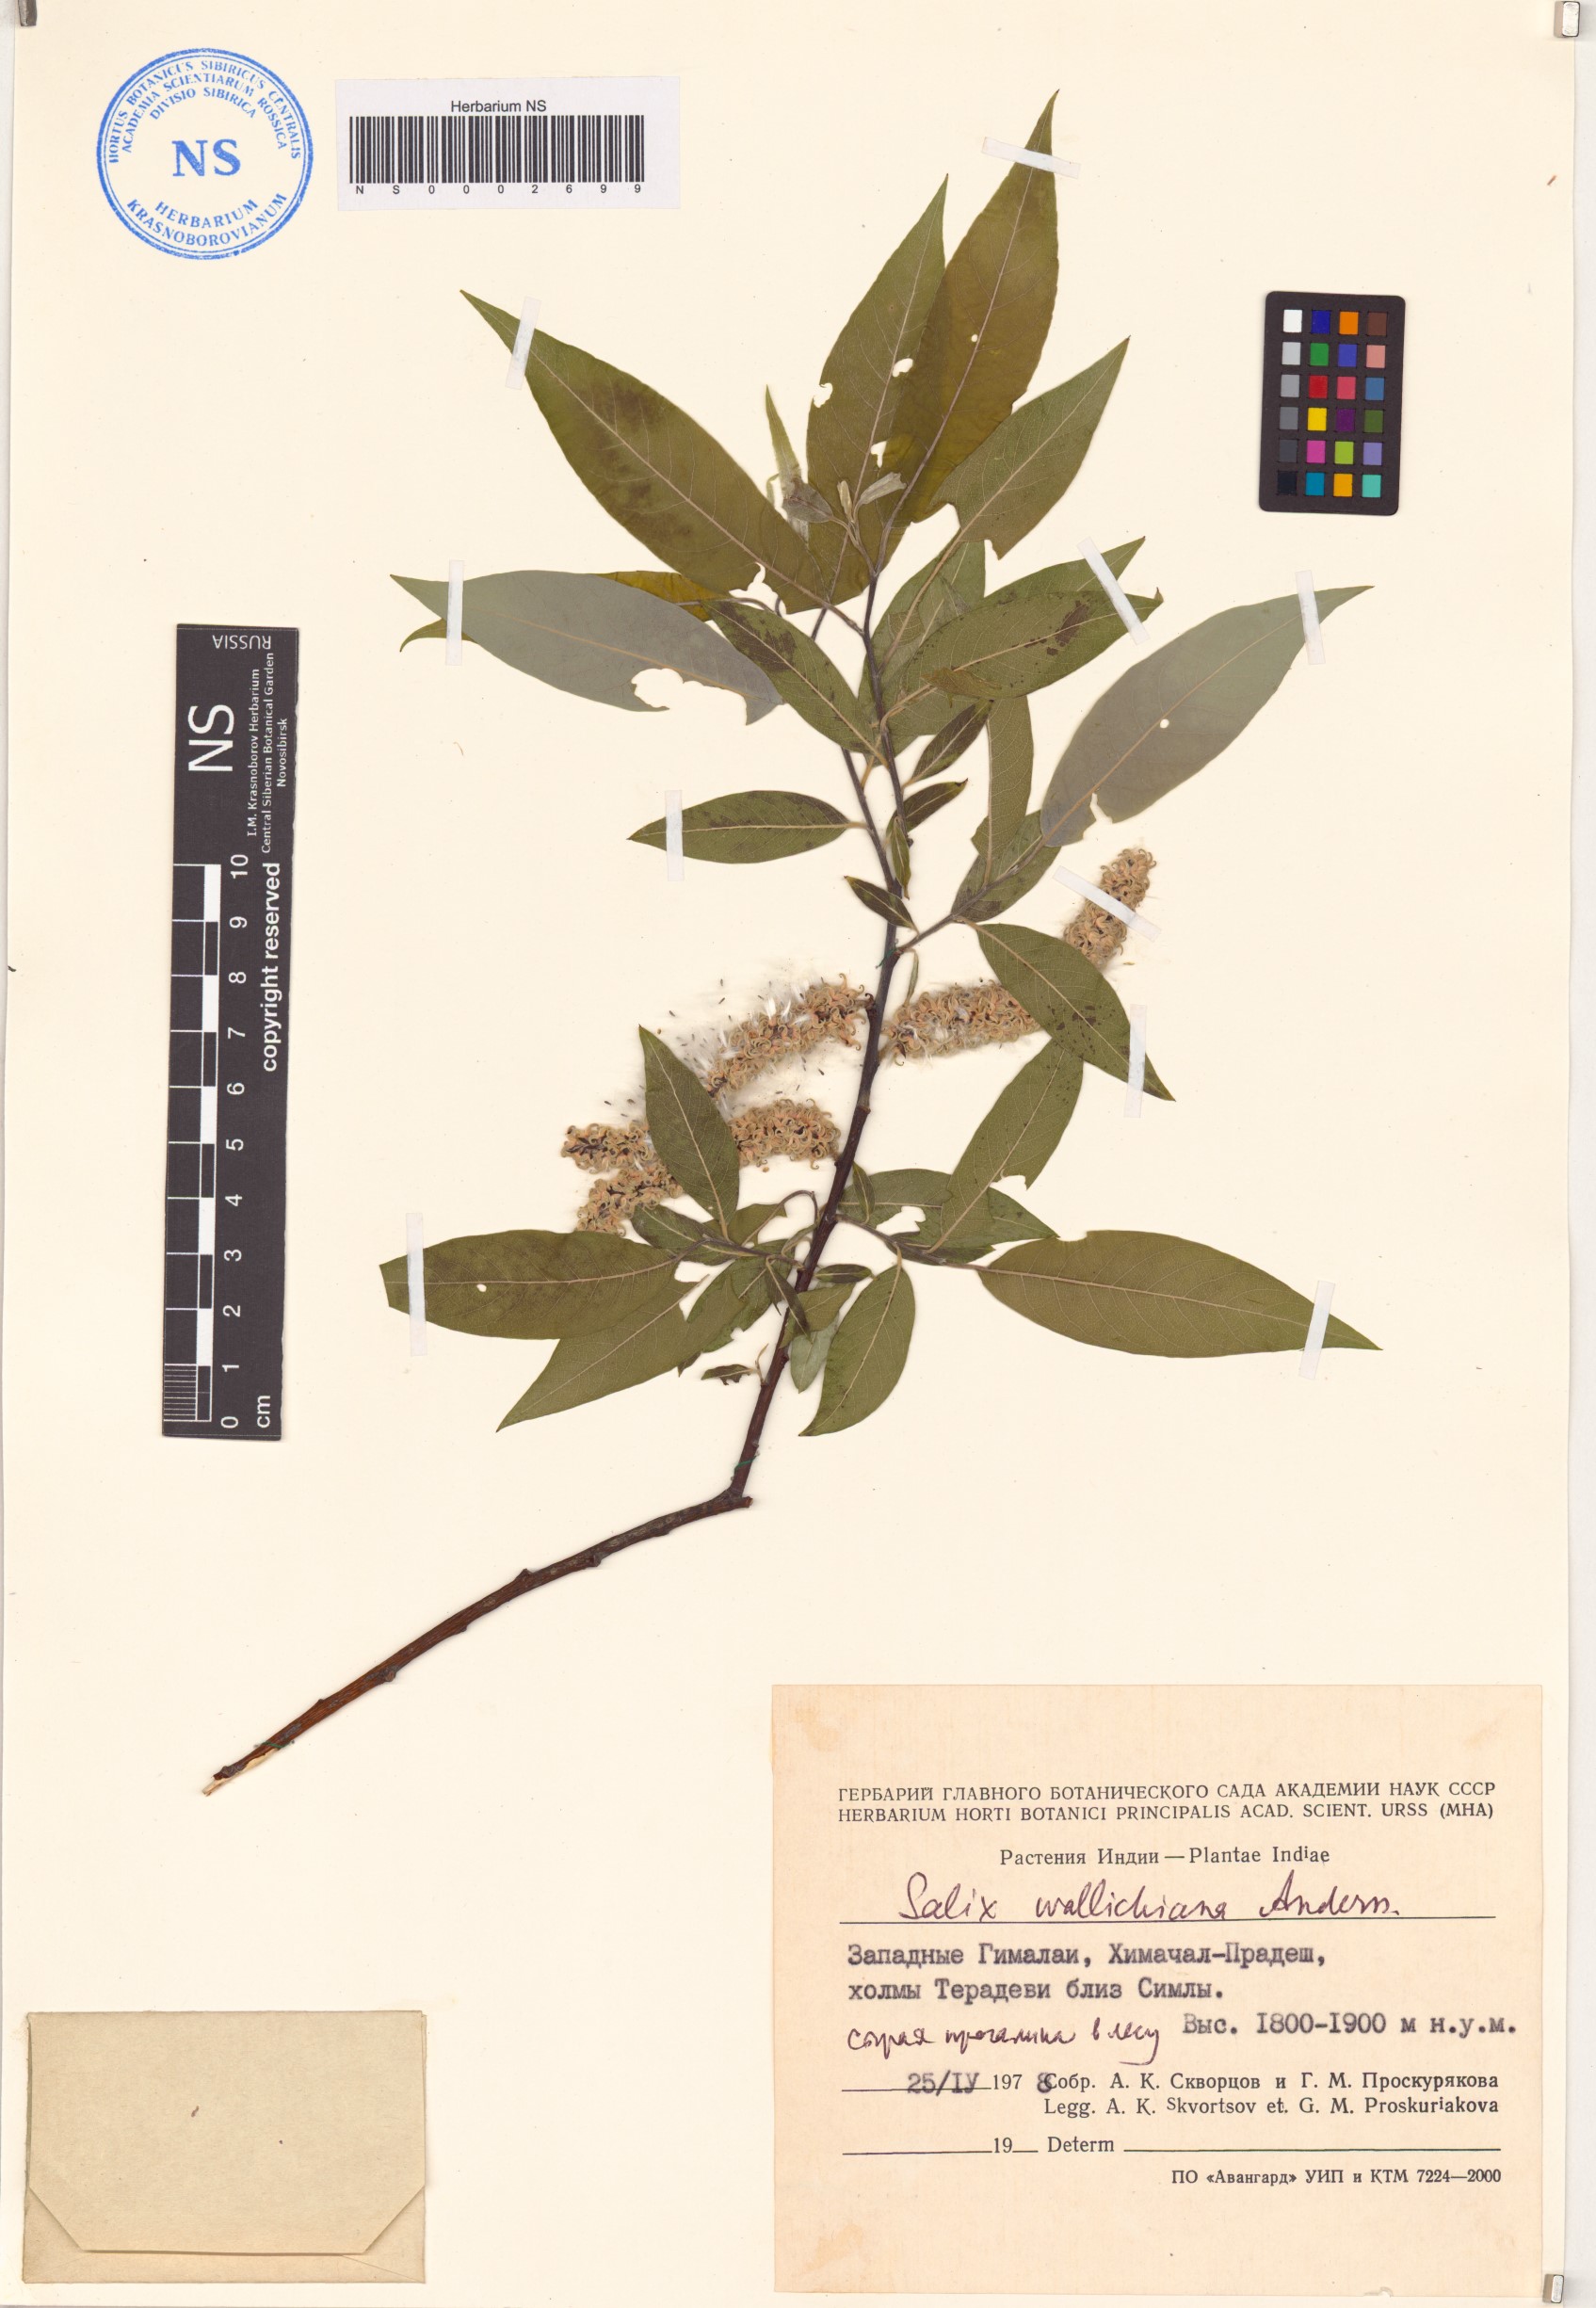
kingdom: Plantae
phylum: Tracheophyta
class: Magnoliopsida
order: Malpighiales
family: Salicaceae
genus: Salix
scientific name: Salix disperma
